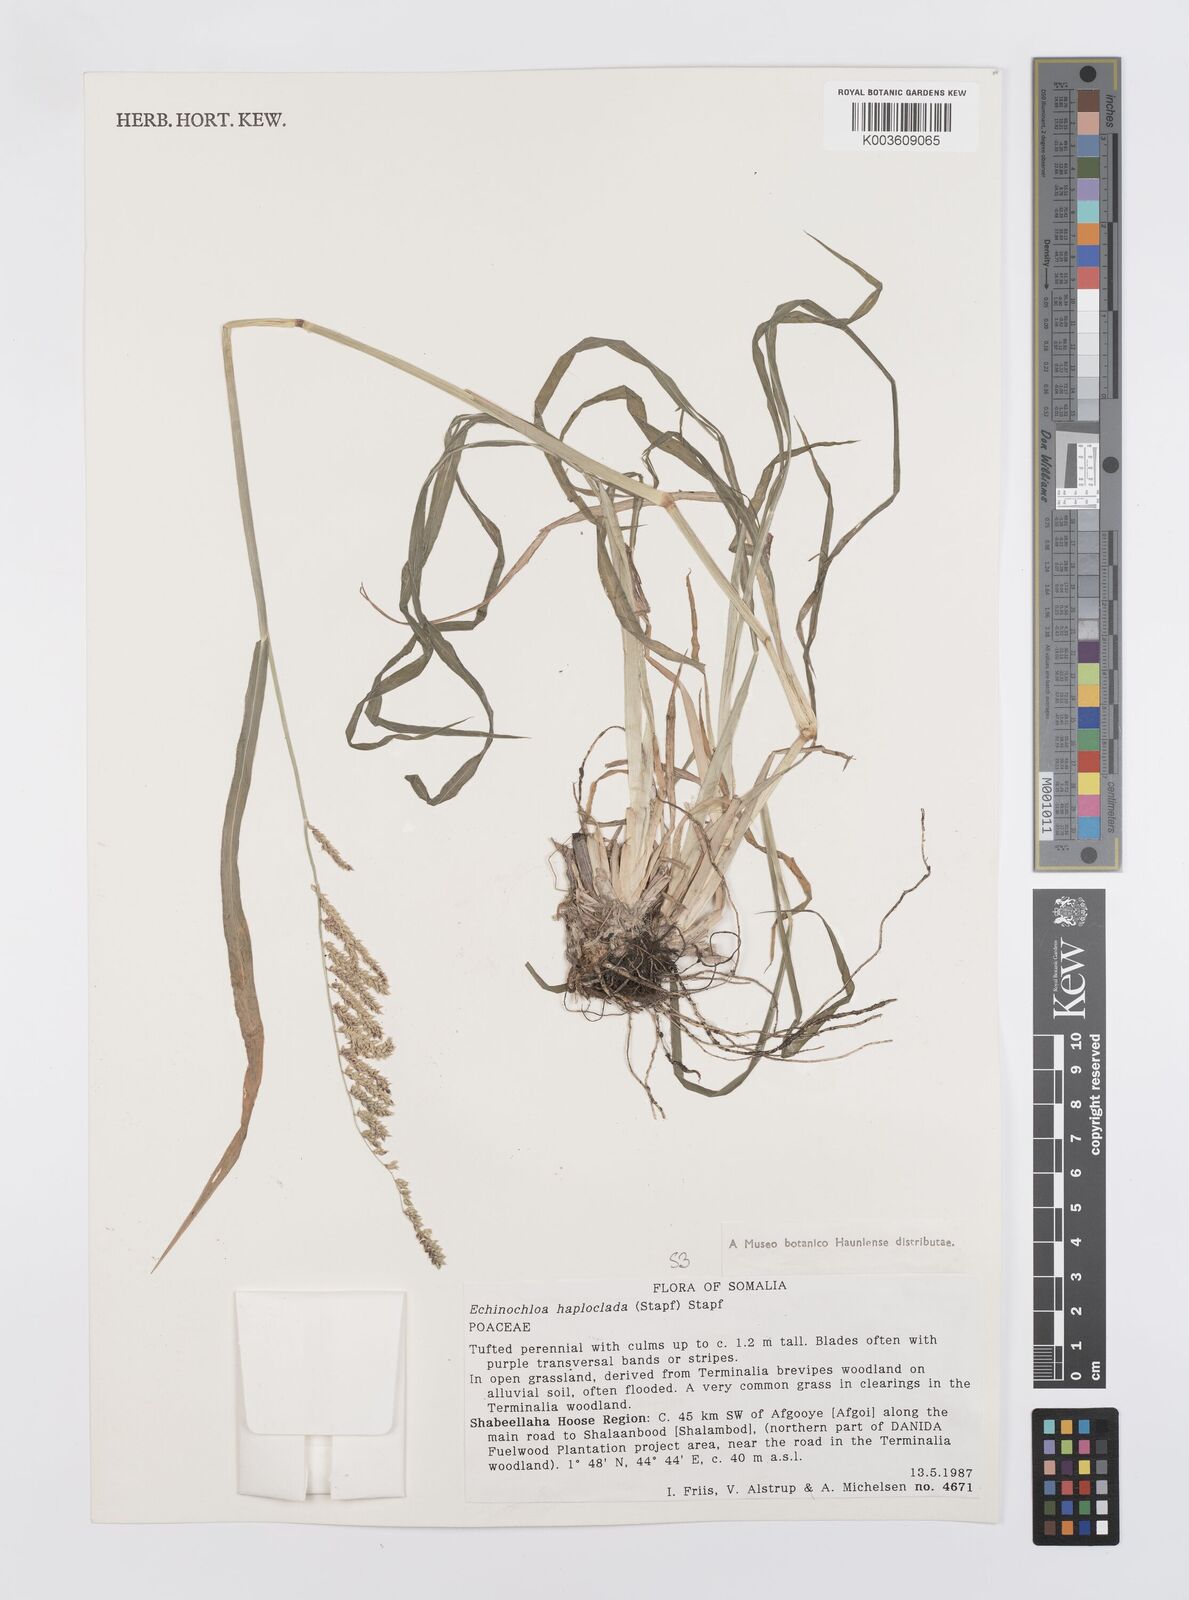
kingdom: Plantae
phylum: Tracheophyta
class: Liliopsida
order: Poales
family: Poaceae
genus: Echinochloa
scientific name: Echinochloa haploclada
